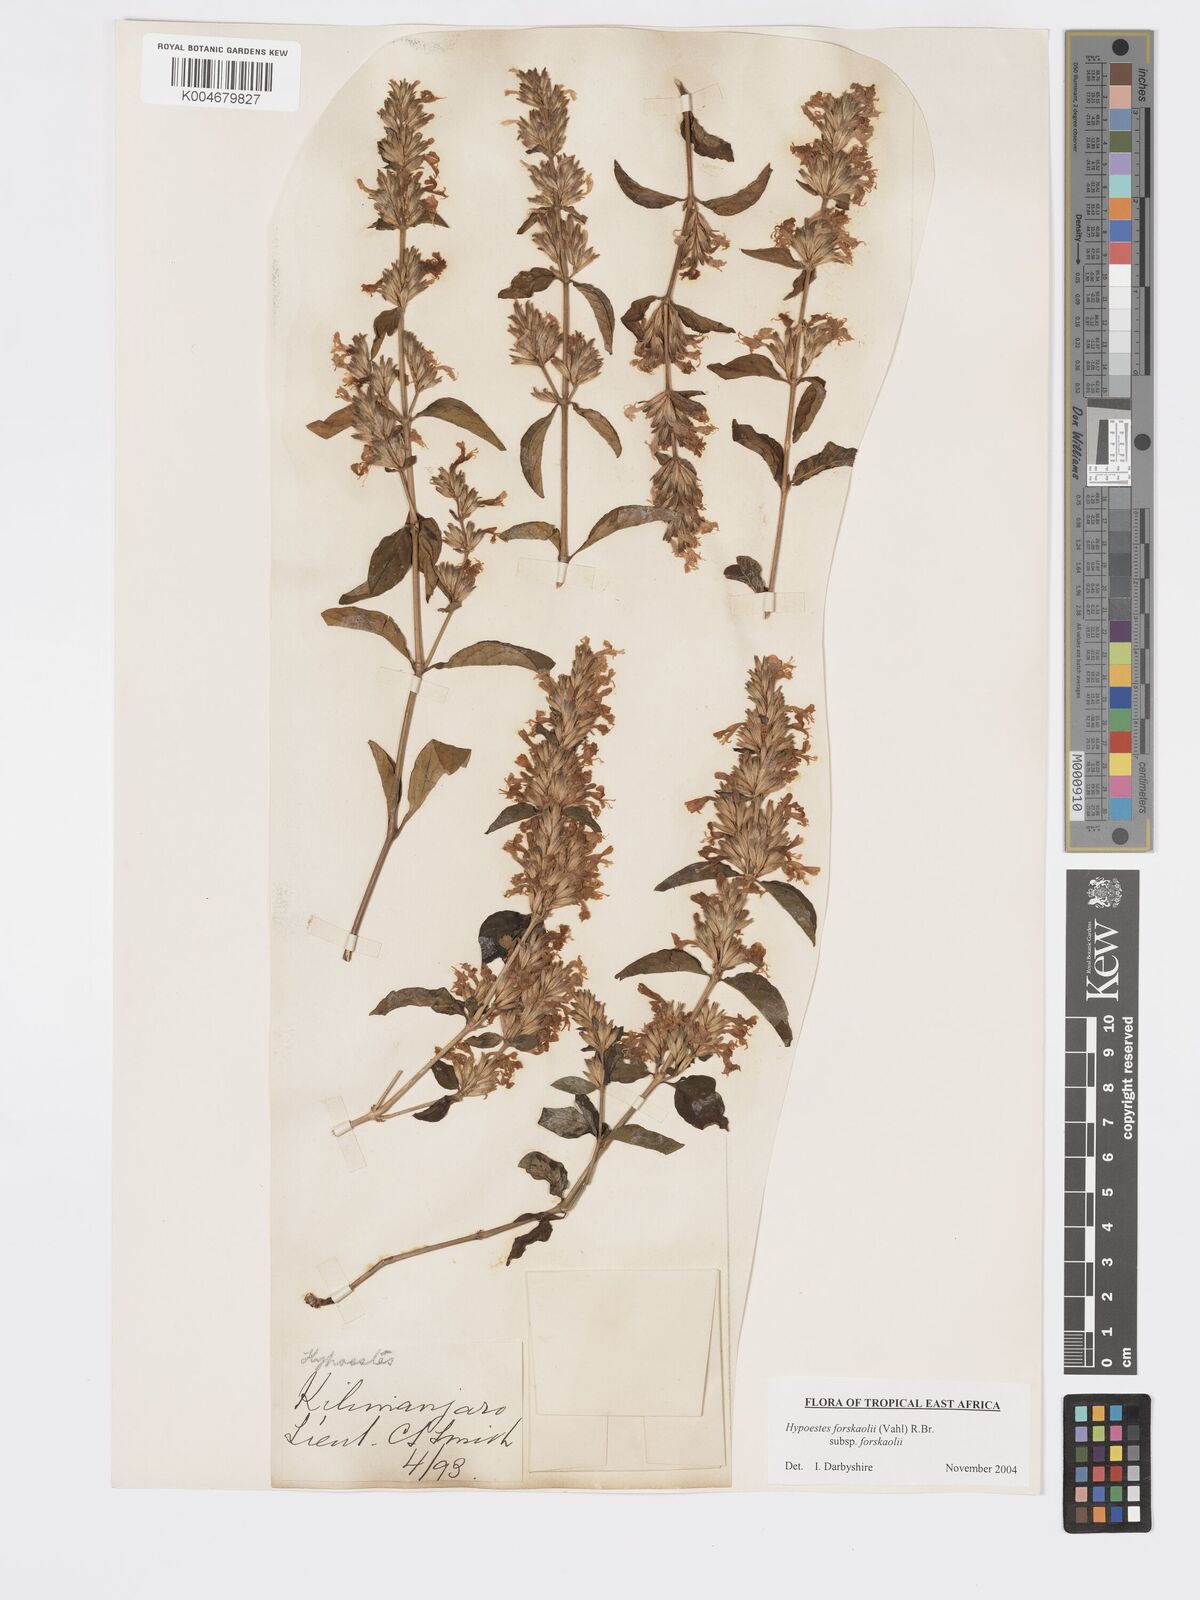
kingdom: Plantae
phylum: Tracheophyta
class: Magnoliopsida
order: Lamiales
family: Acanthaceae
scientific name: Acanthaceae
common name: Acanthaceae
